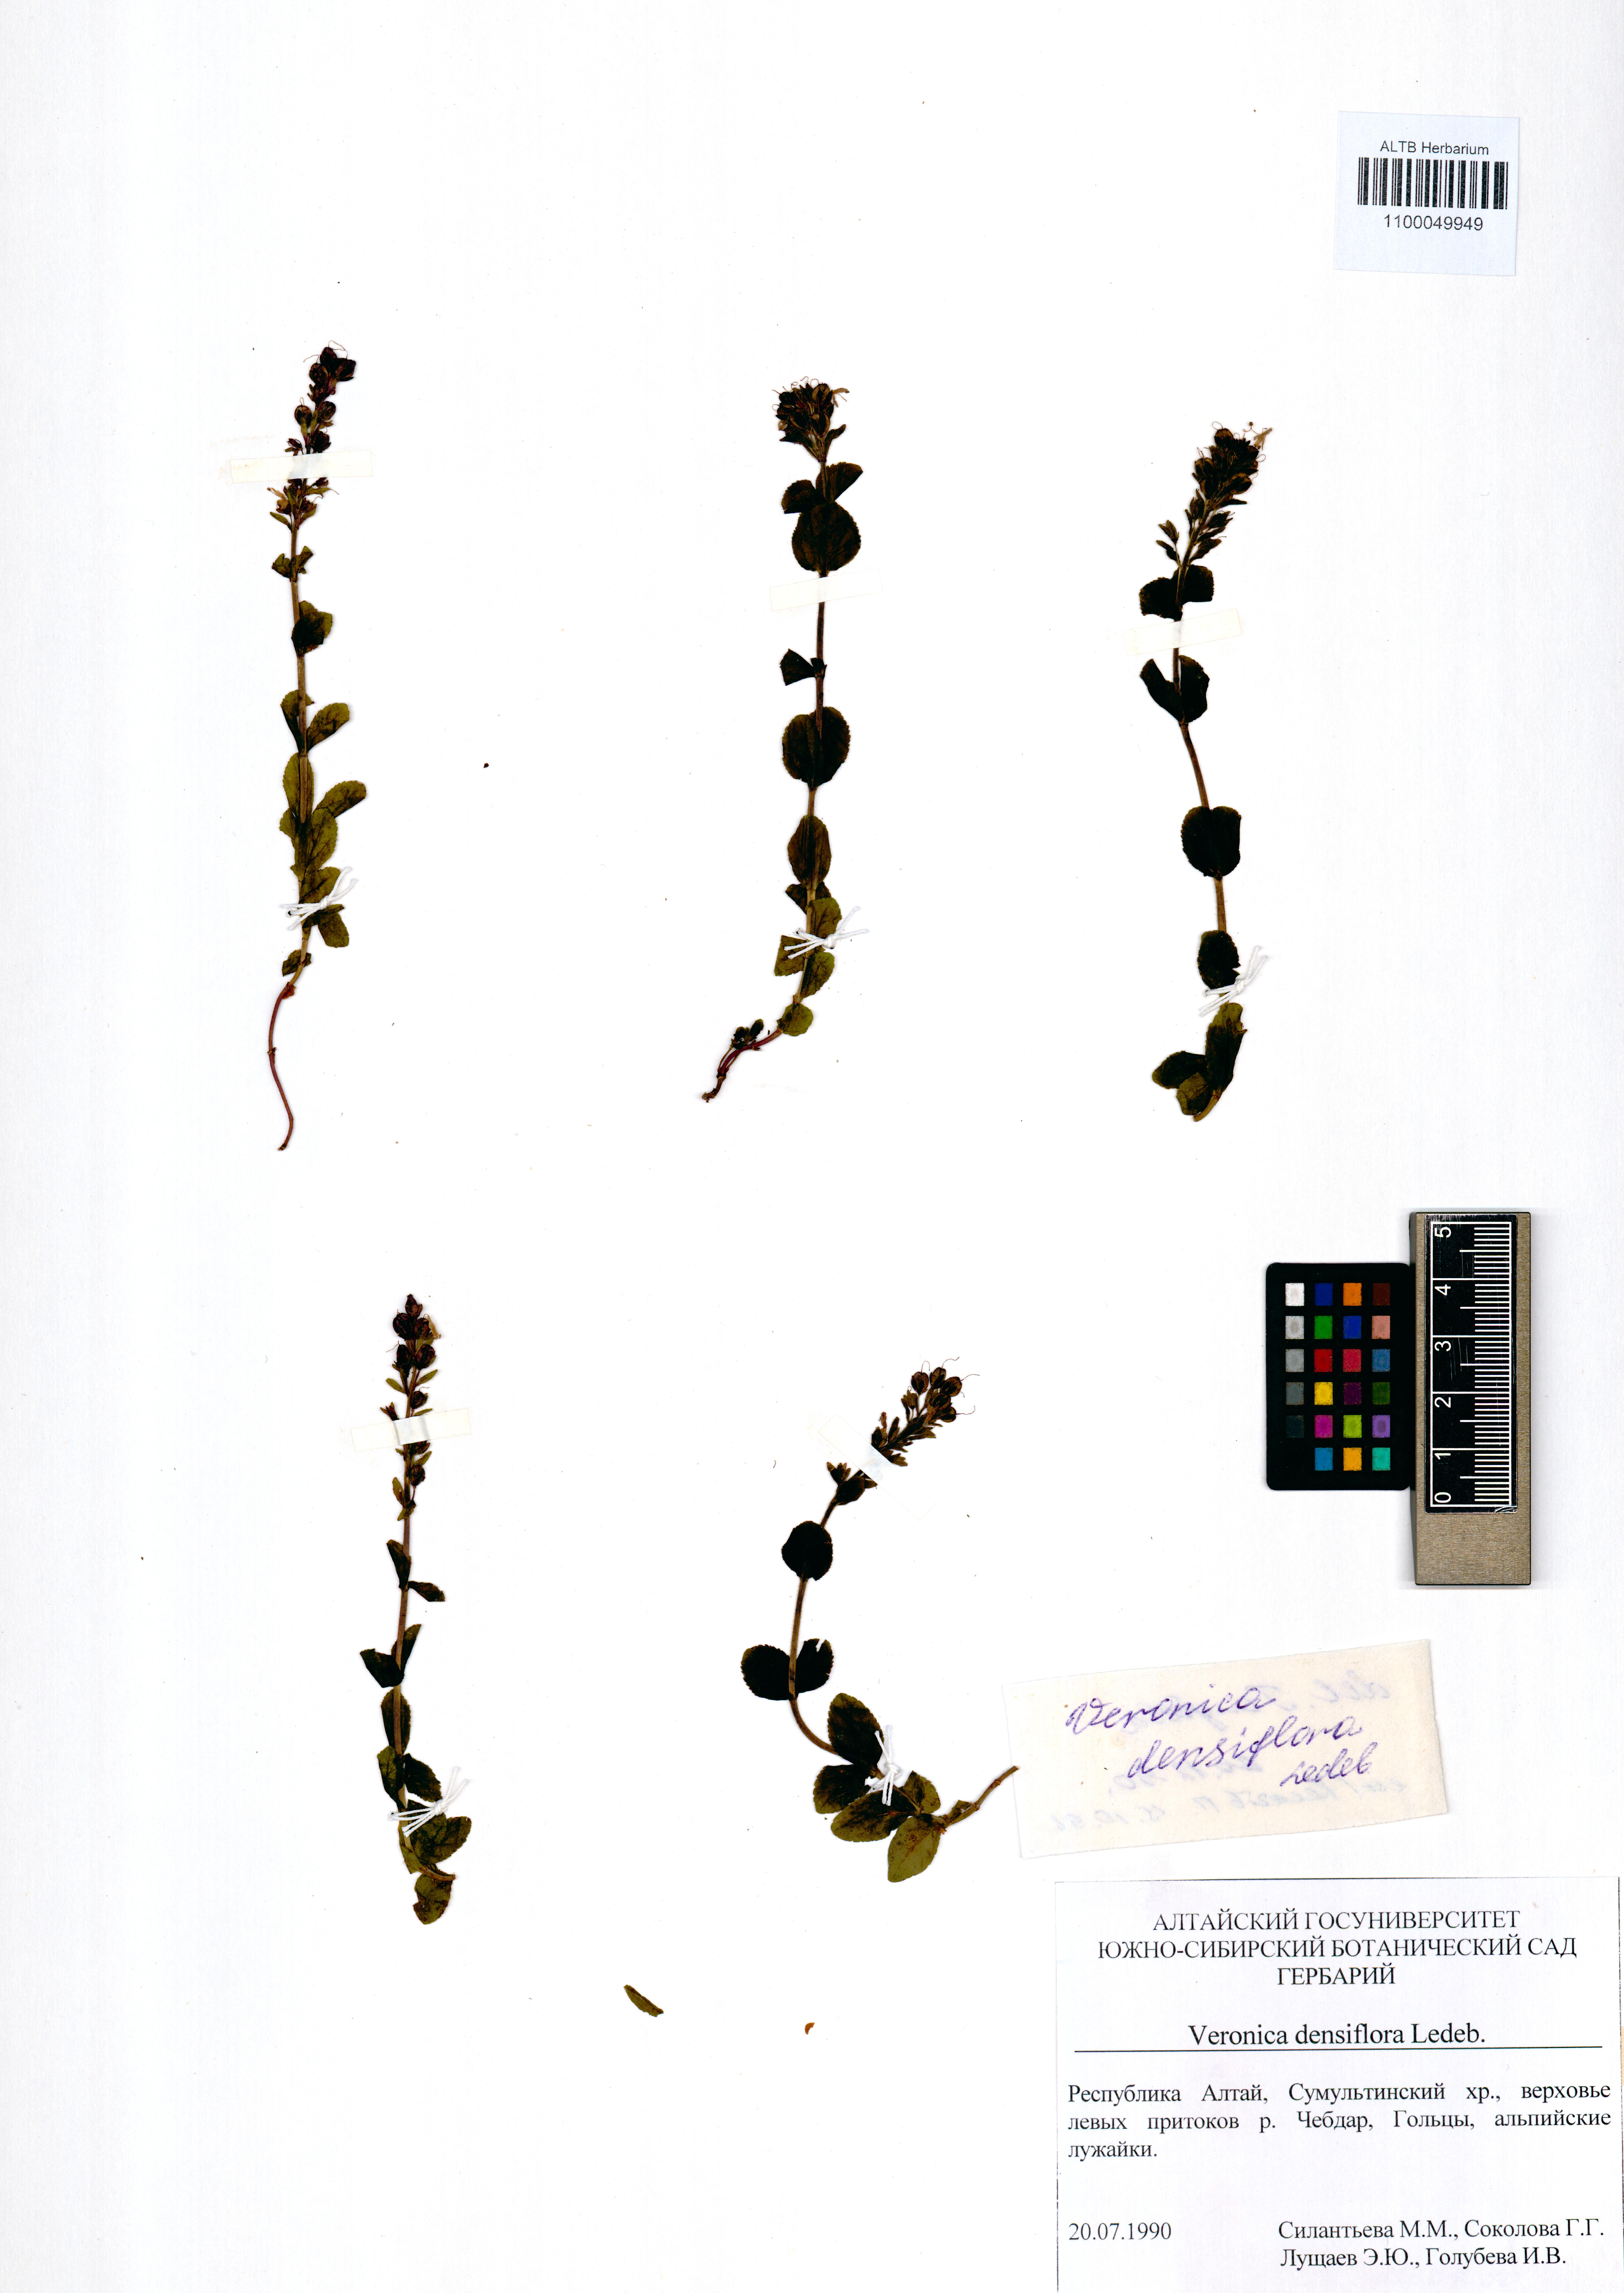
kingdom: Plantae
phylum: Tracheophyta
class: Magnoliopsida
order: Lamiales
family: Plantaginaceae
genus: Veronica
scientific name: Veronica densiflora
